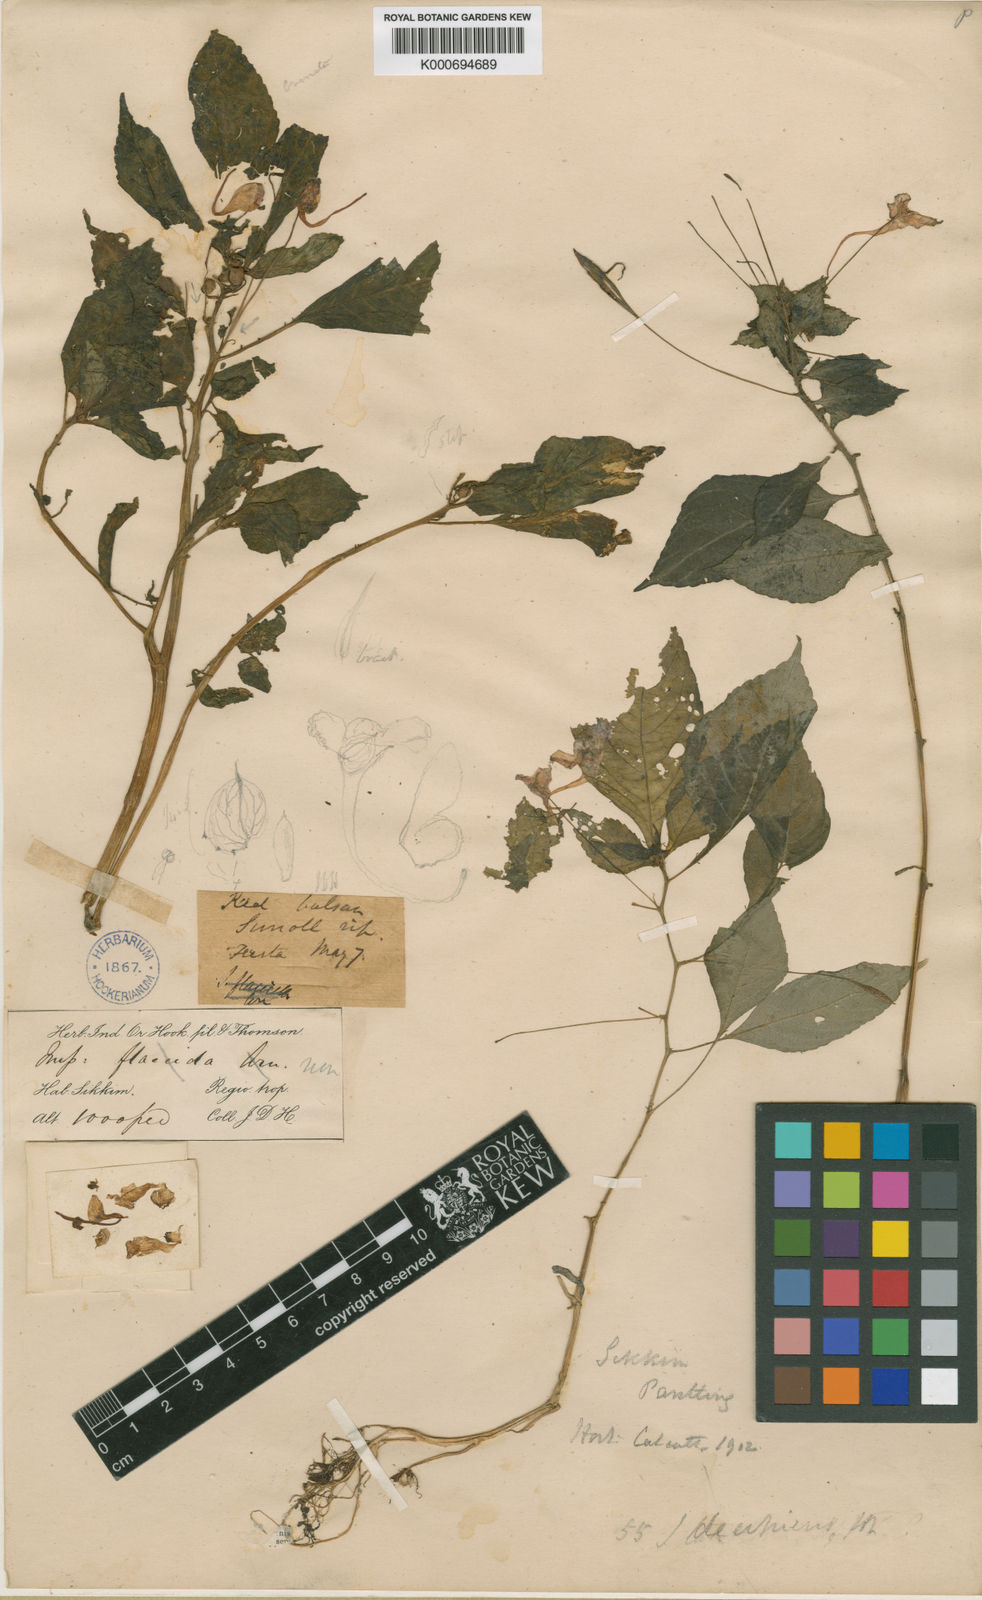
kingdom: Plantae
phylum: Tracheophyta
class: Magnoliopsida
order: Ericales
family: Balsaminaceae
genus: Impatiens
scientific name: Impatiens decipiens
